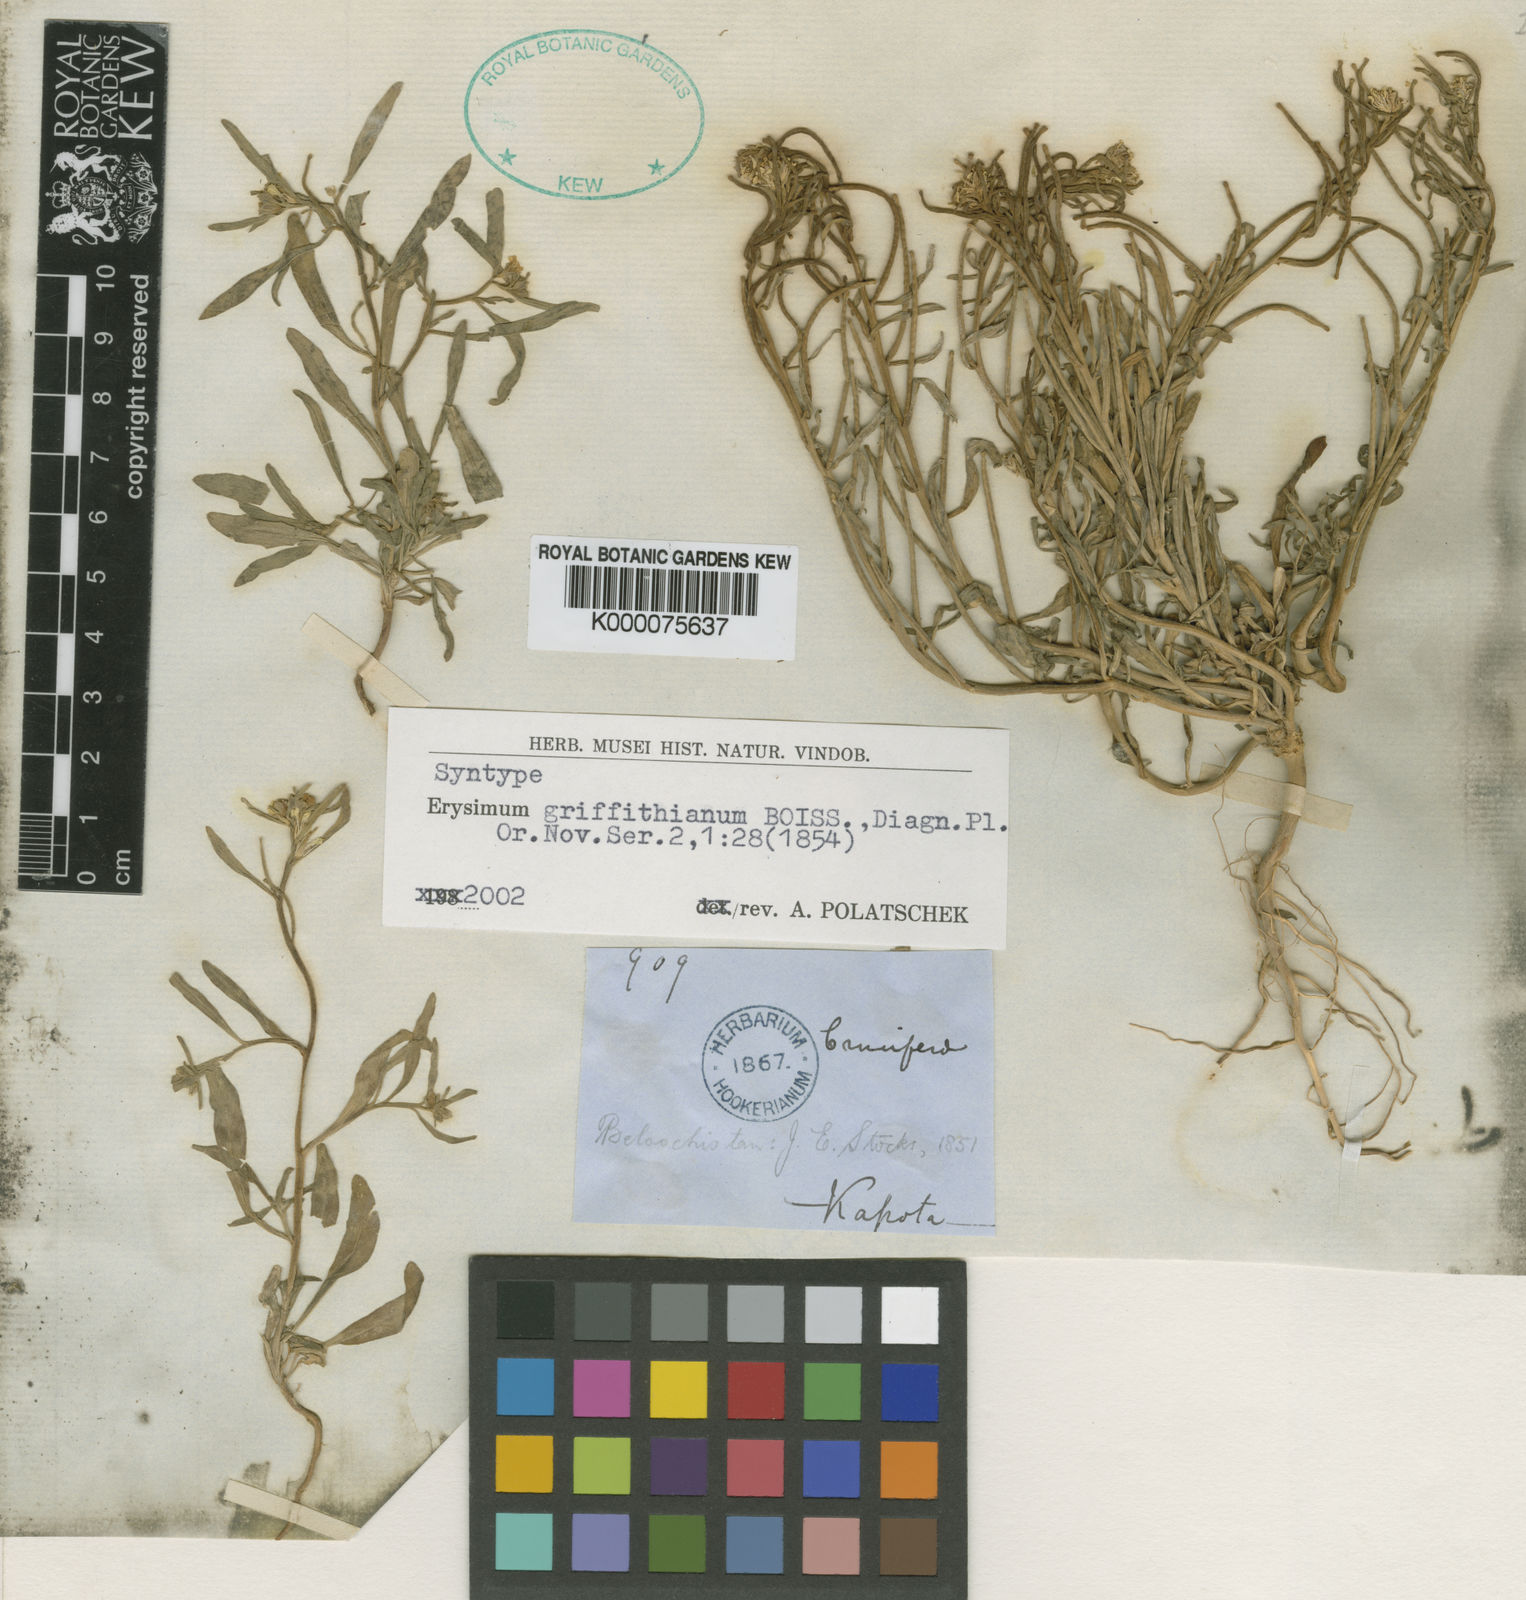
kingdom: Plantae
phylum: Tracheophyta
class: Magnoliopsida
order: Brassicales
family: Brassicaceae
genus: Erysimum
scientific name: Erysimum sisymbrioides
